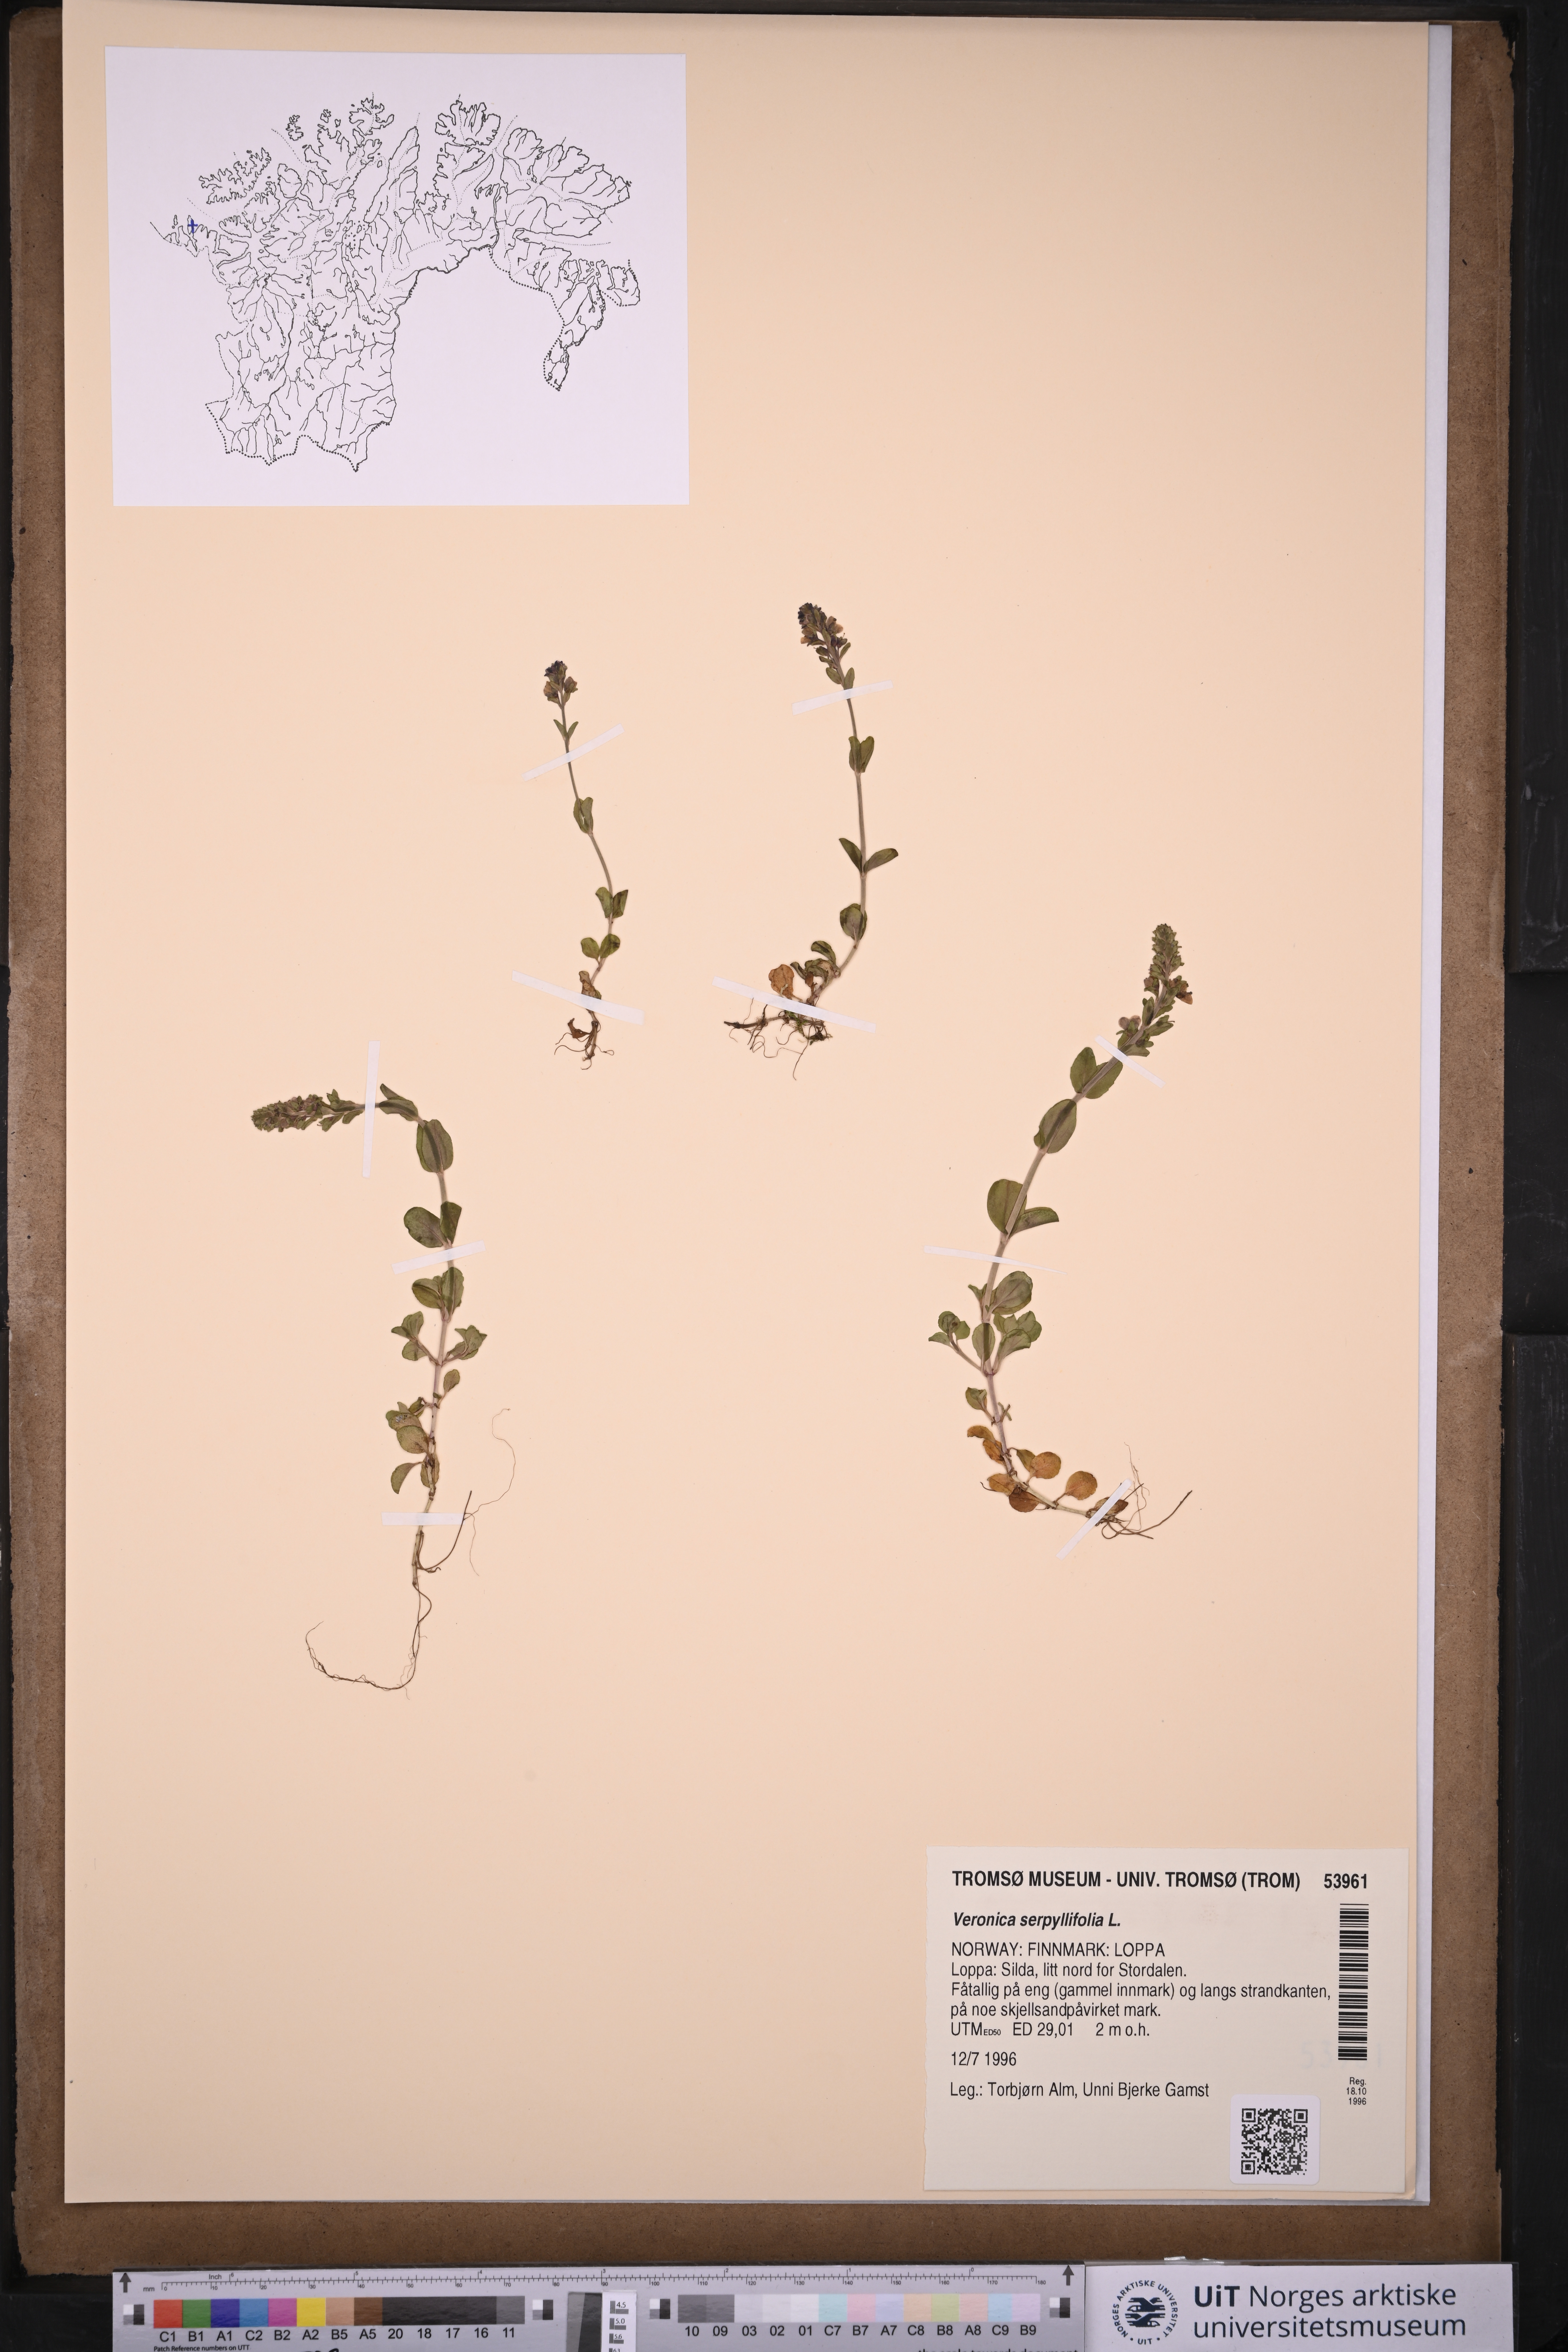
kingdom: Plantae
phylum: Tracheophyta
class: Magnoliopsida
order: Lamiales
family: Plantaginaceae
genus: Veronica
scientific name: Veronica serpyllifolia
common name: Thyme-leaved speedwell
